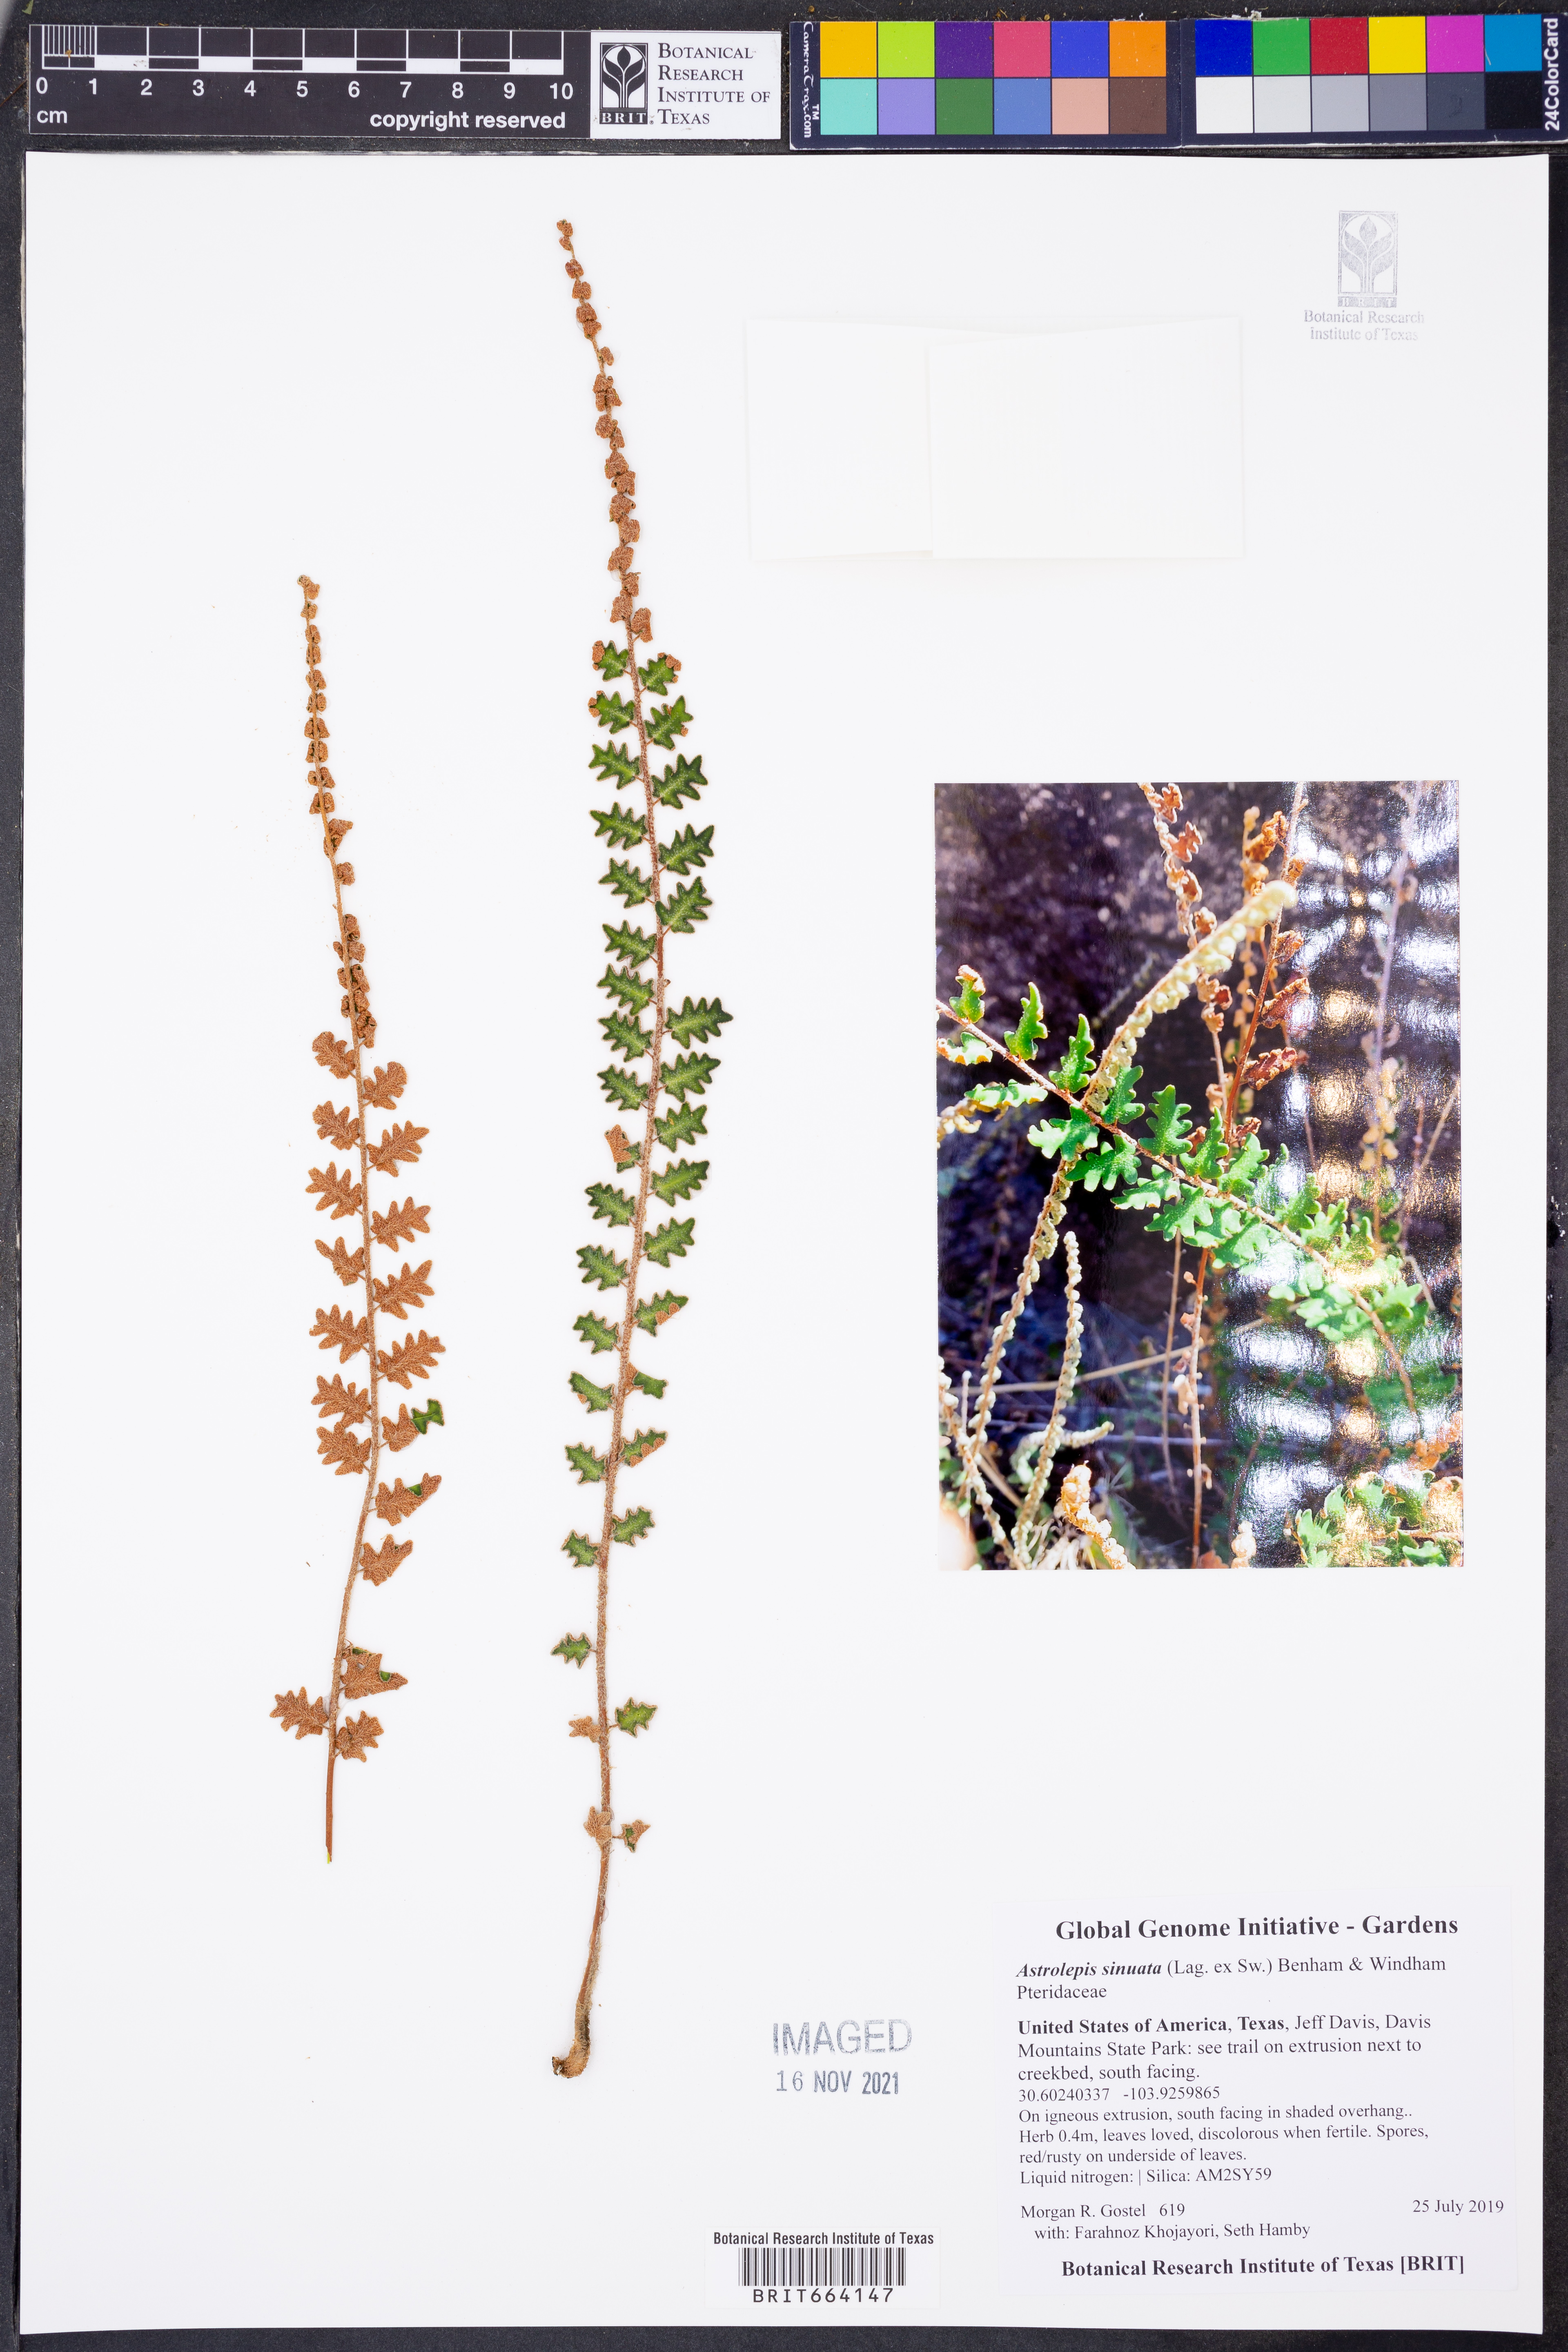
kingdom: Plantae
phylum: Tracheophyta
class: Polypodiopsida
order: Polypodiales
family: Pteridaceae
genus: Astrolepis
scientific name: Astrolepis sinuata
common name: Wavy scaly cloakfern
